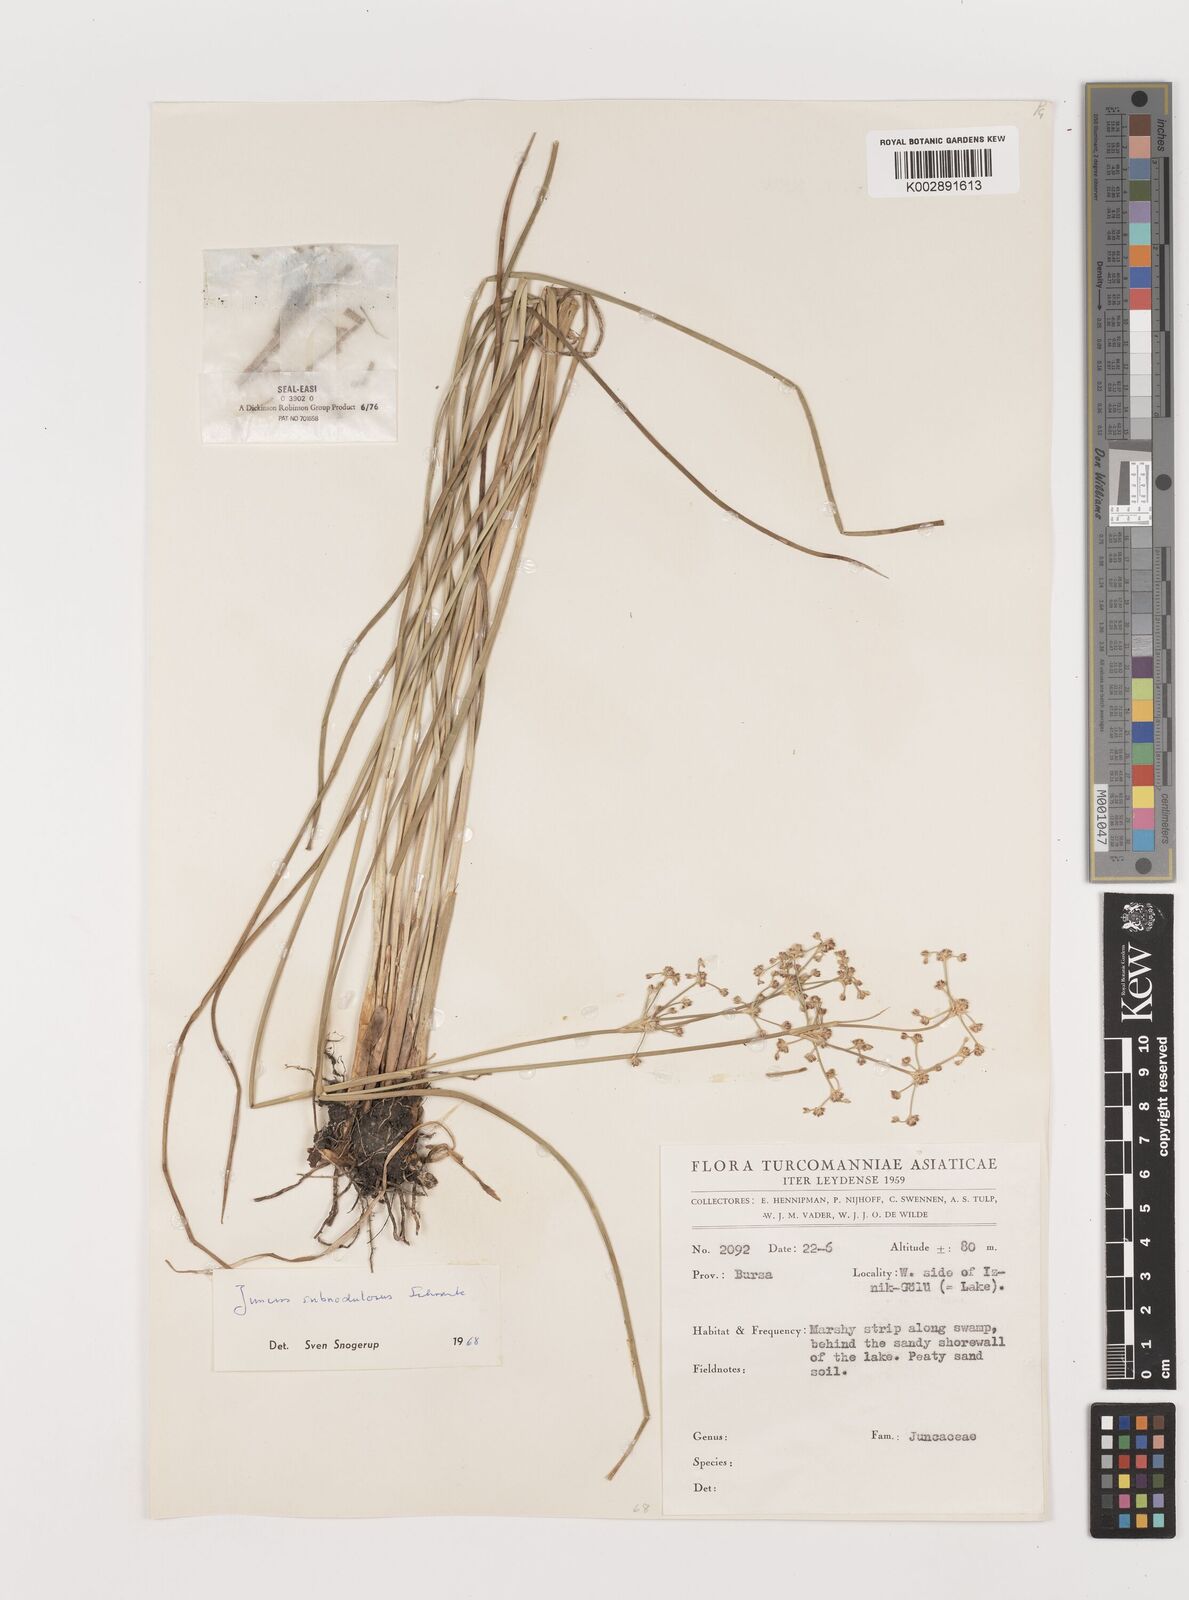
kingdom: Plantae
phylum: Tracheophyta
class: Liliopsida
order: Poales
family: Juncaceae
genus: Juncus
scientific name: Juncus subnodulosus
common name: Blunt-flowered rush
